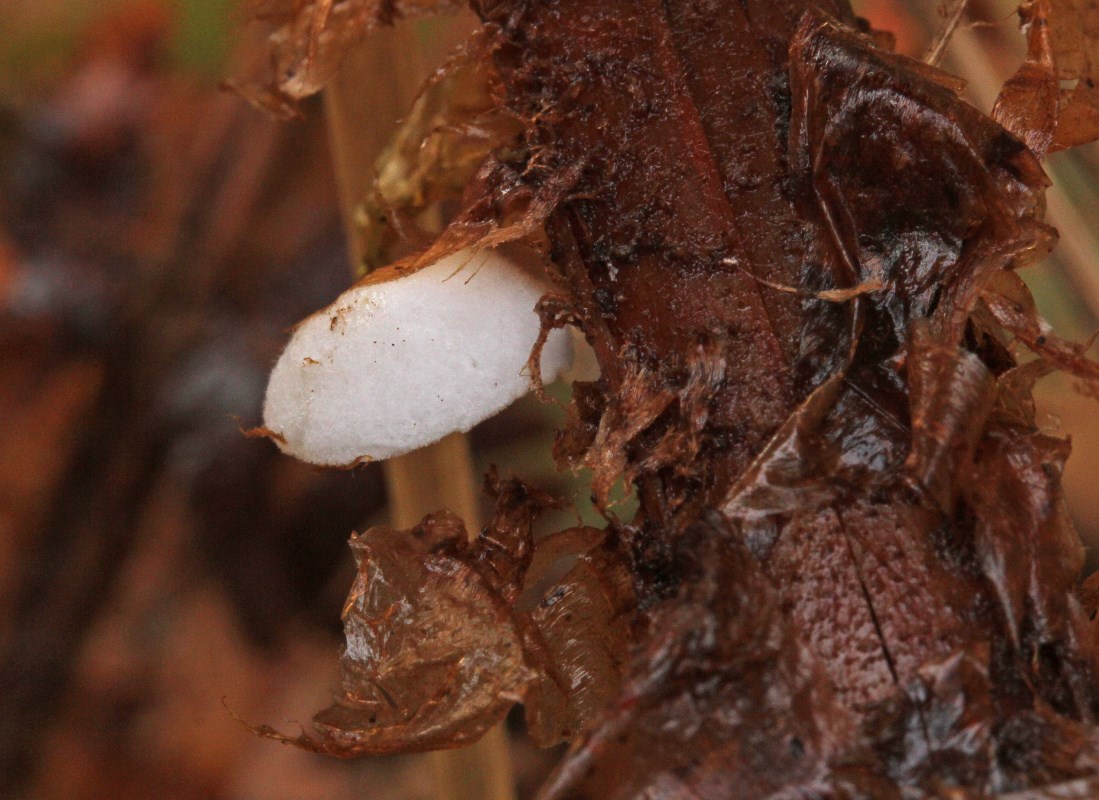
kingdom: Fungi
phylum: Basidiomycota
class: Agaricomycetes
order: Agaricales
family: Crepidotaceae
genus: Crepidotus
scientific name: Crepidotus epibryus
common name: førne-muslingesvamp
